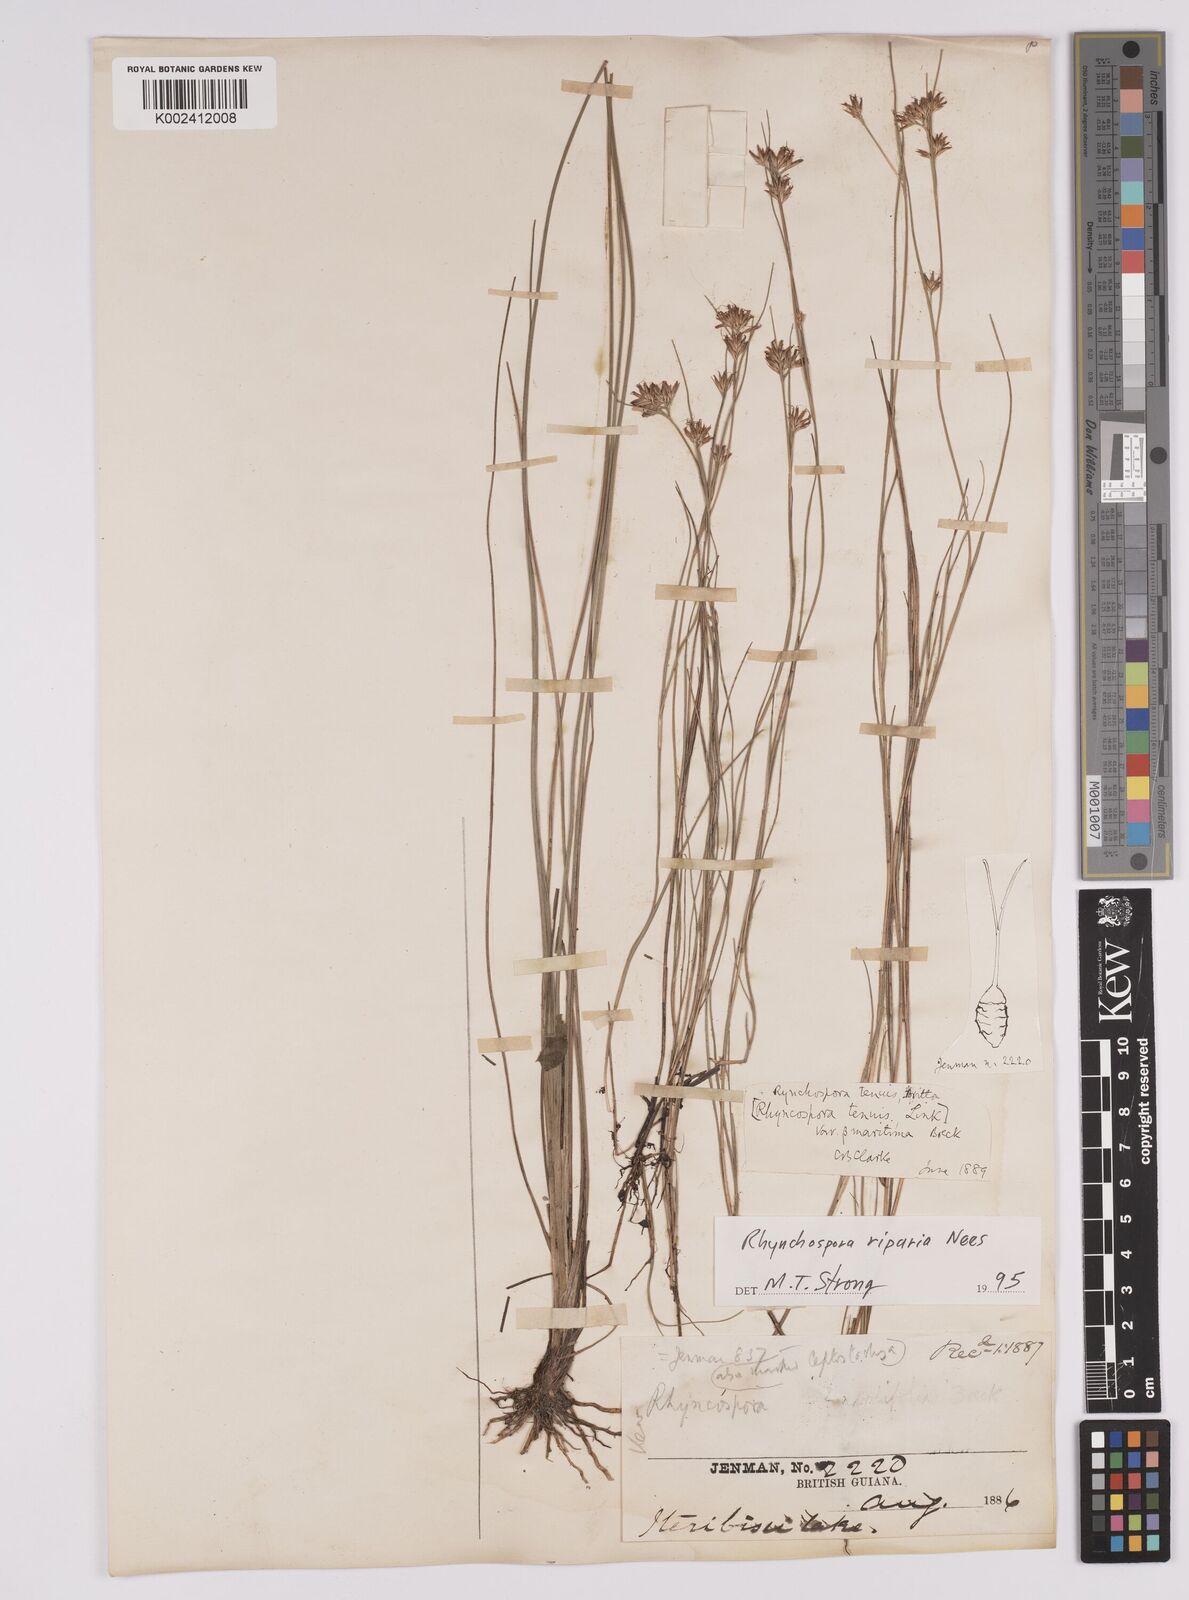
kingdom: Plantae
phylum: Tracheophyta
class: Liliopsida
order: Poales
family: Cyperaceae
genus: Rhynchospora
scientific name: Rhynchospora riparia
